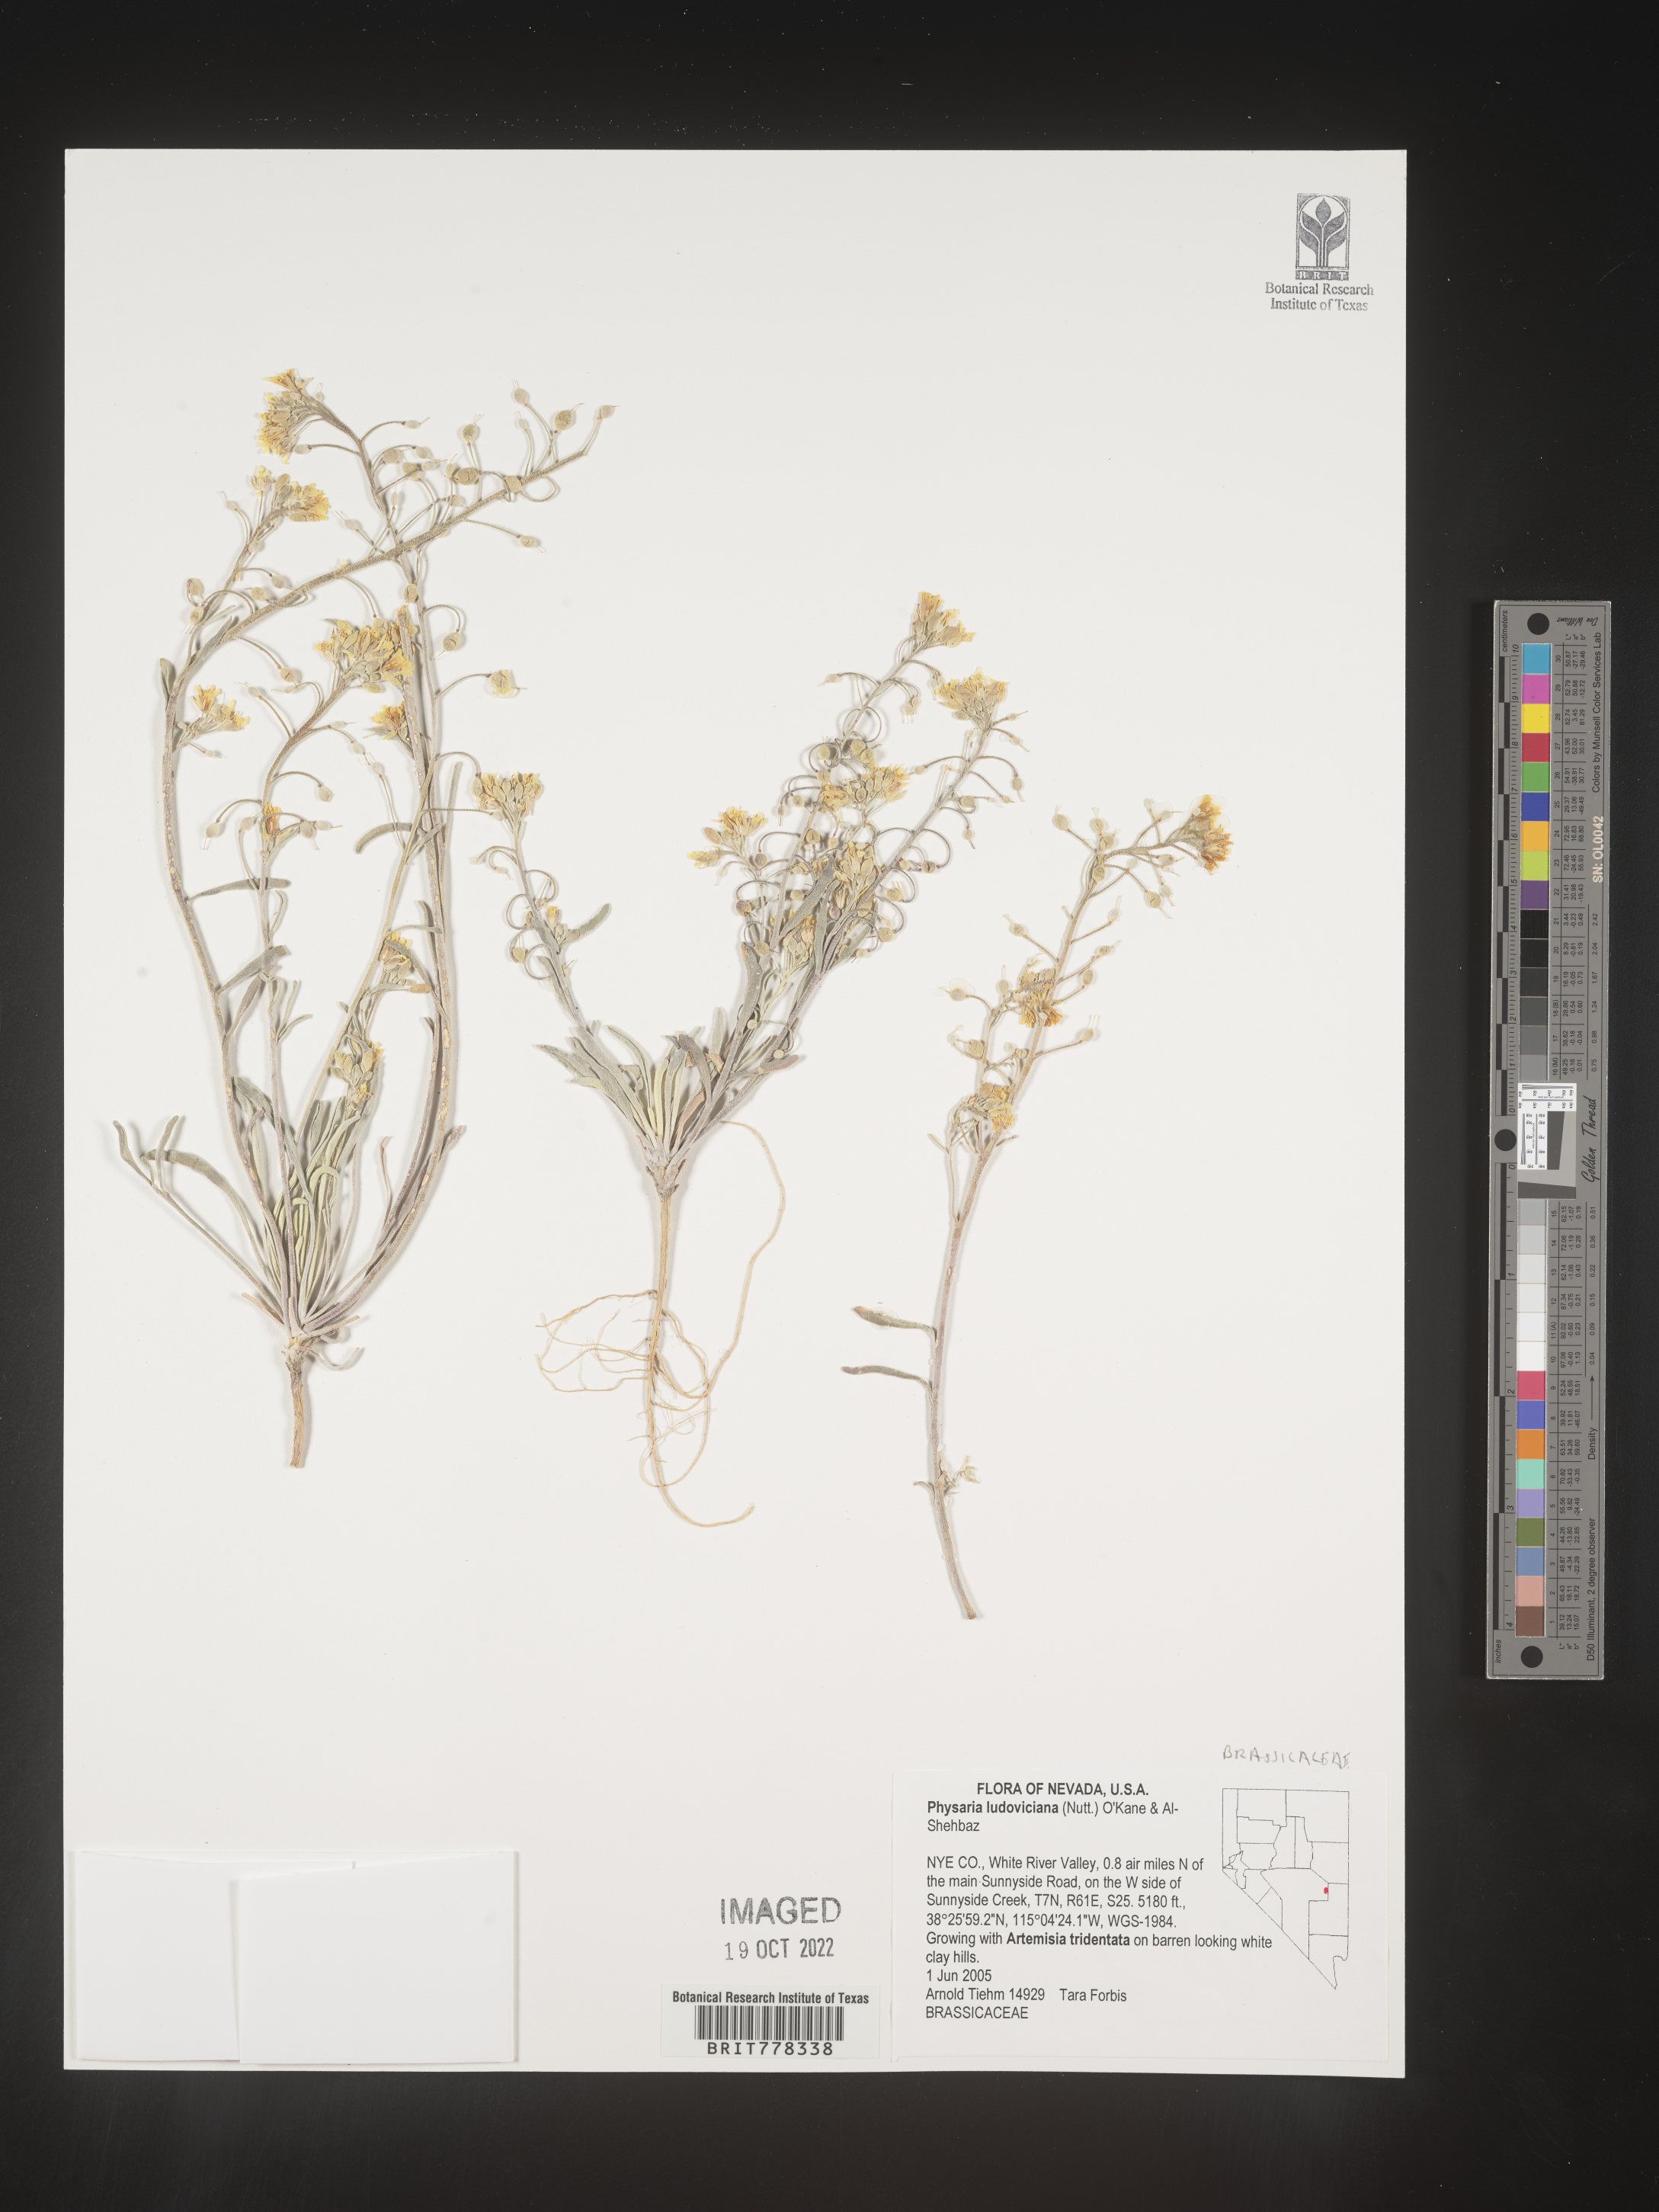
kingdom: Plantae
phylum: Tracheophyta
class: Magnoliopsida
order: Brassicales
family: Brassicaceae
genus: Physaria
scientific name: Physaria
